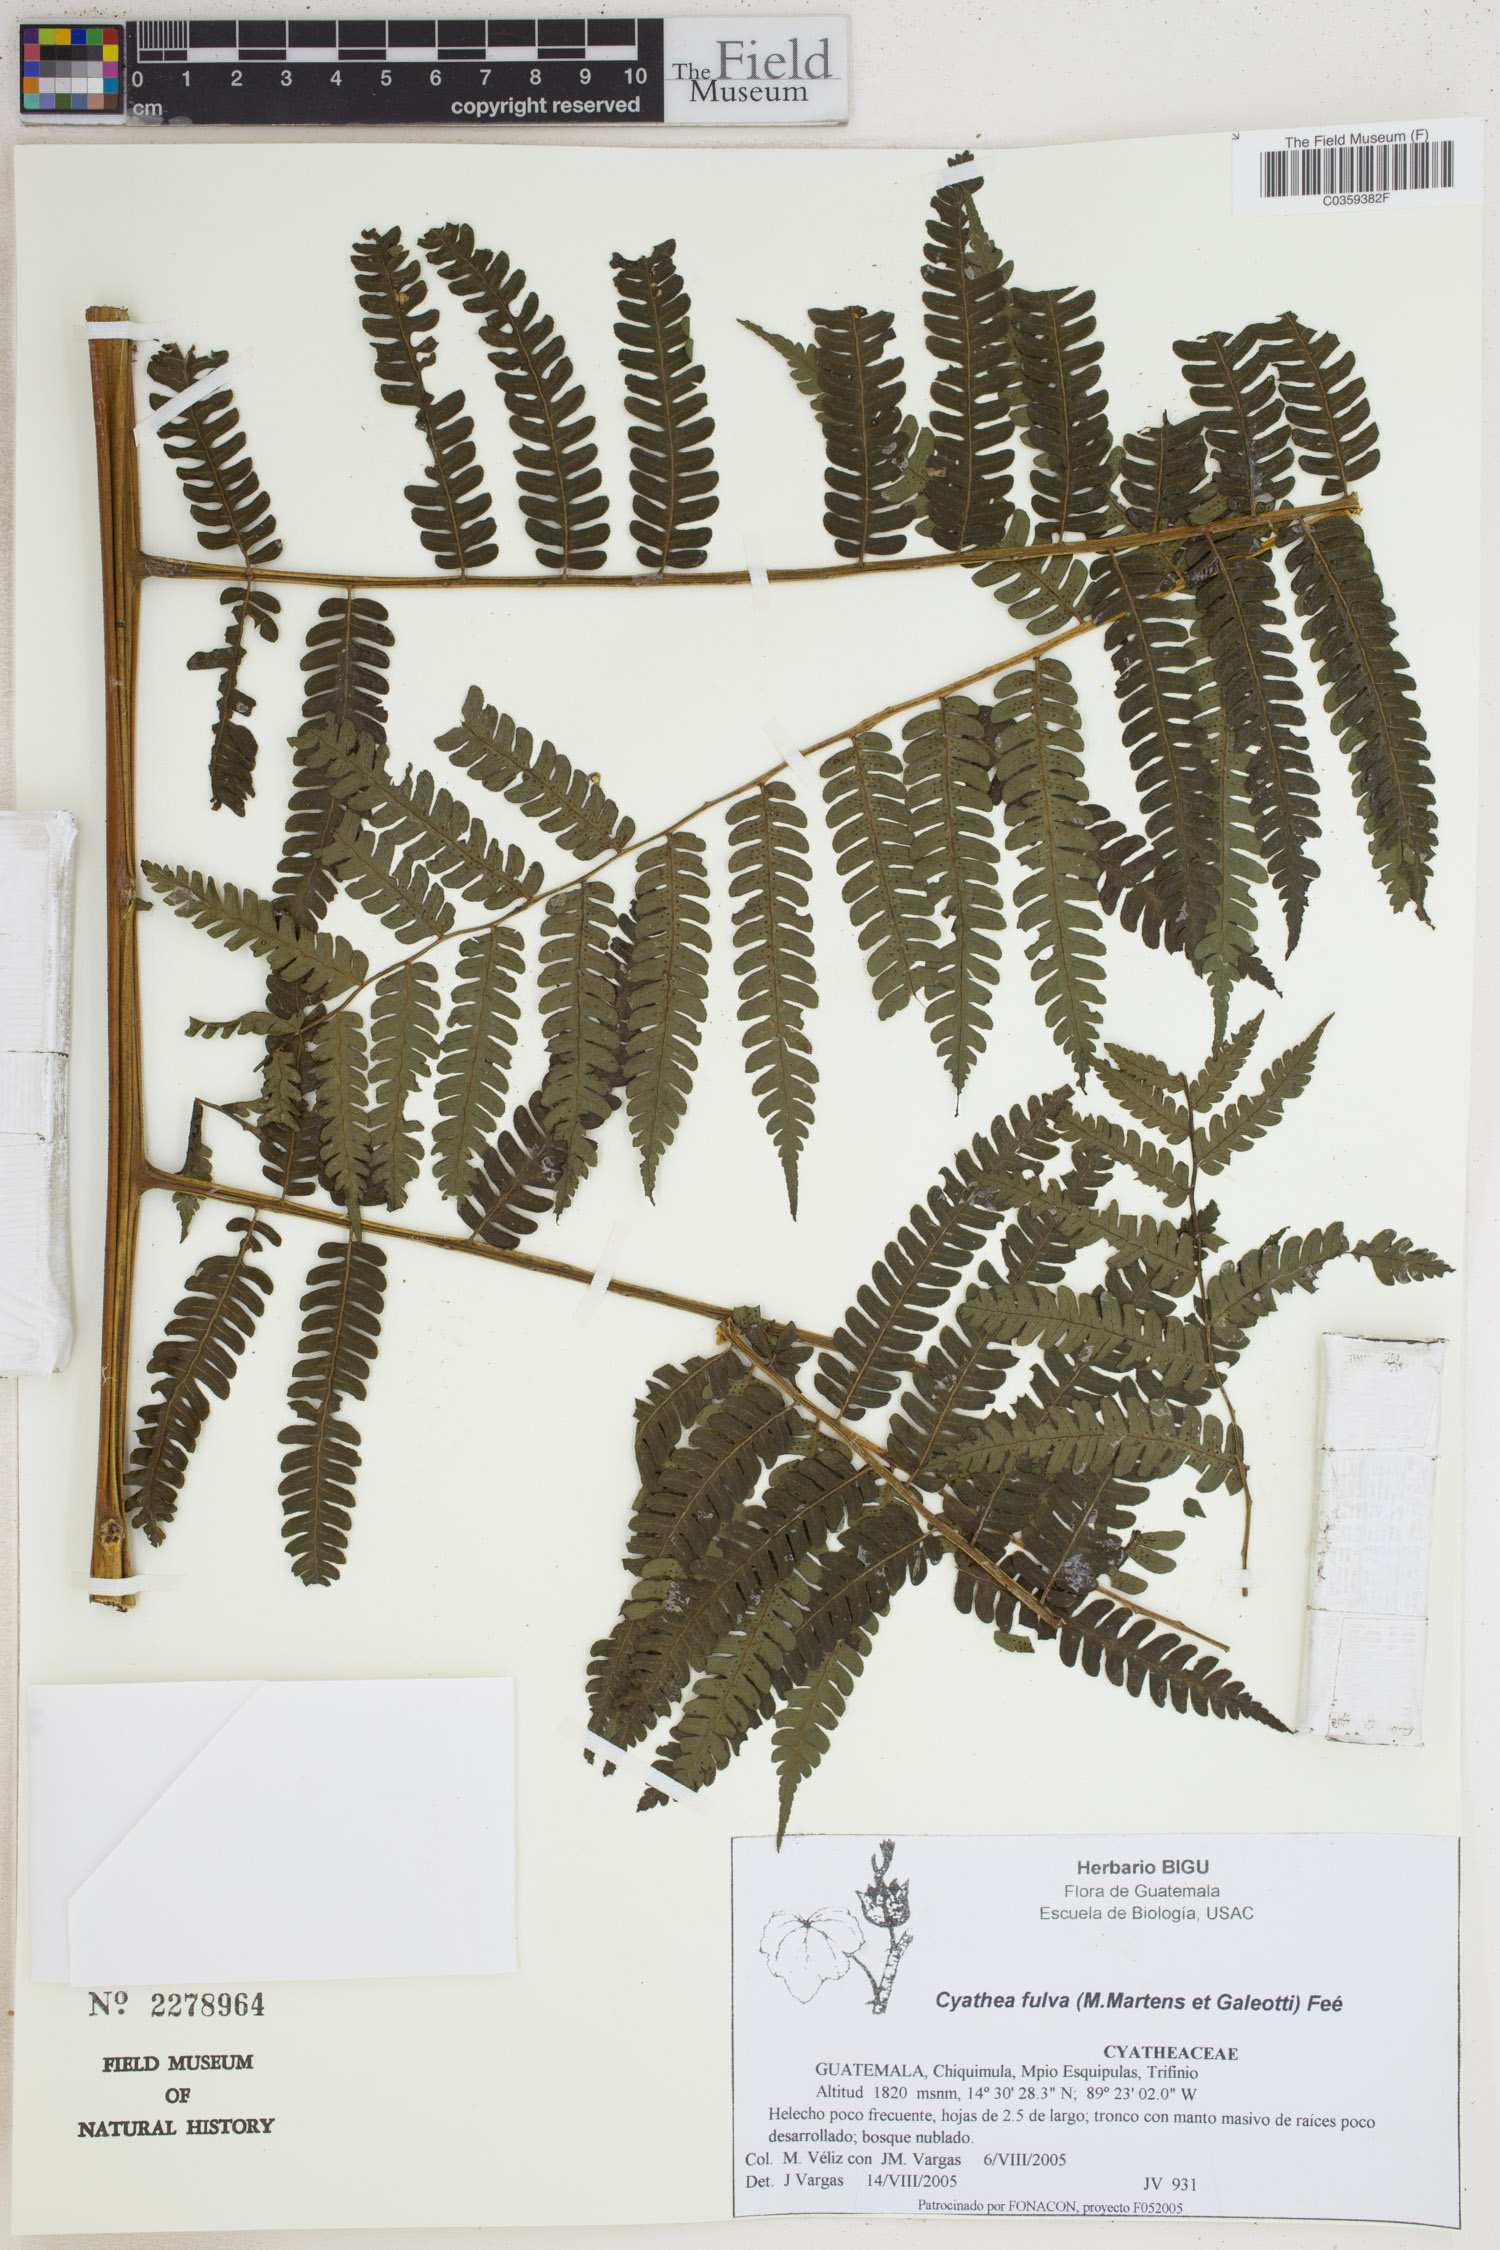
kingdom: Plantae
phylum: Tracheophyta
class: Polypodiopsida
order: Cyatheales
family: Cyatheaceae
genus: Cyathea
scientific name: Cyathea fulva
